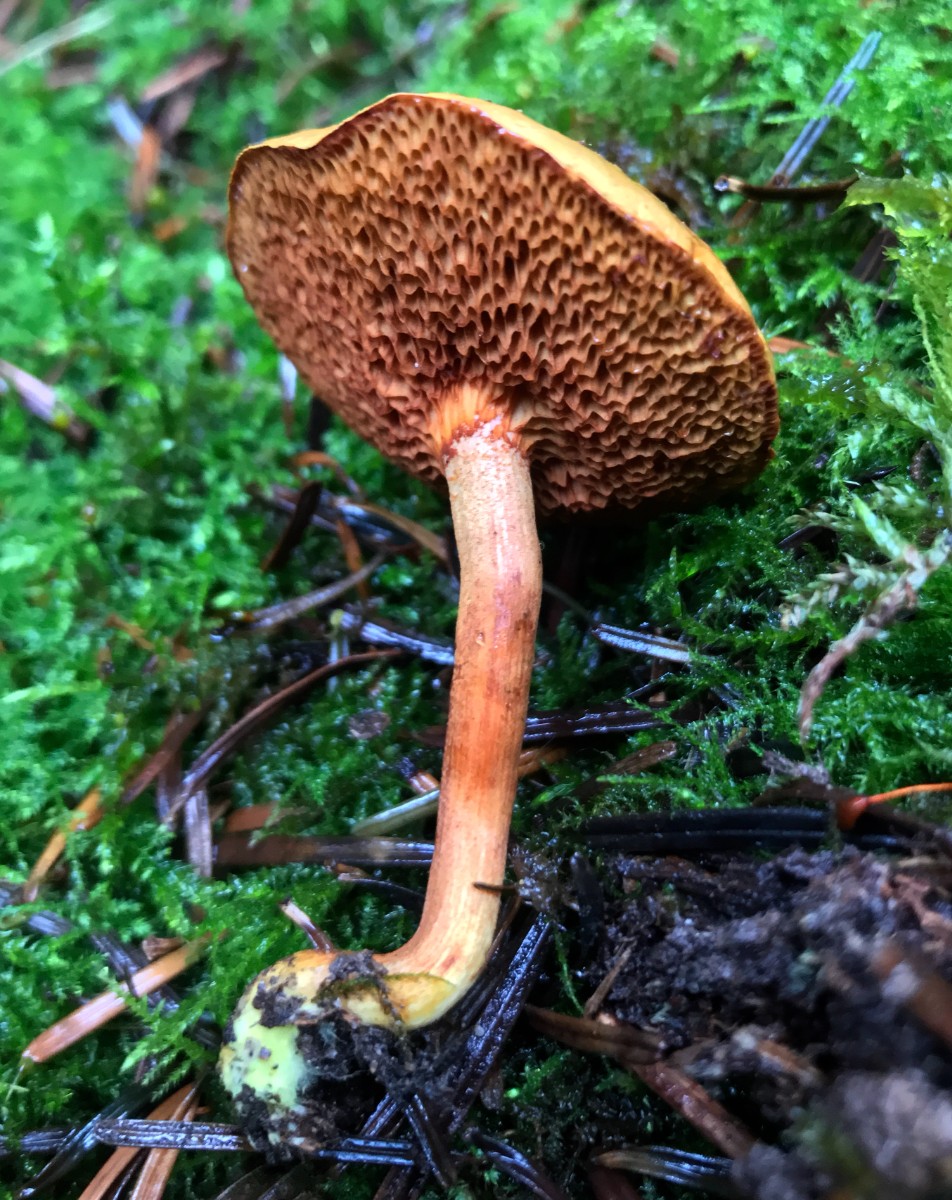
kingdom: Fungi
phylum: Basidiomycota
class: Agaricomycetes
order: Boletales
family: Boletaceae
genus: Chalciporus
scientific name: Chalciporus piperatus
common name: peberrørhat
